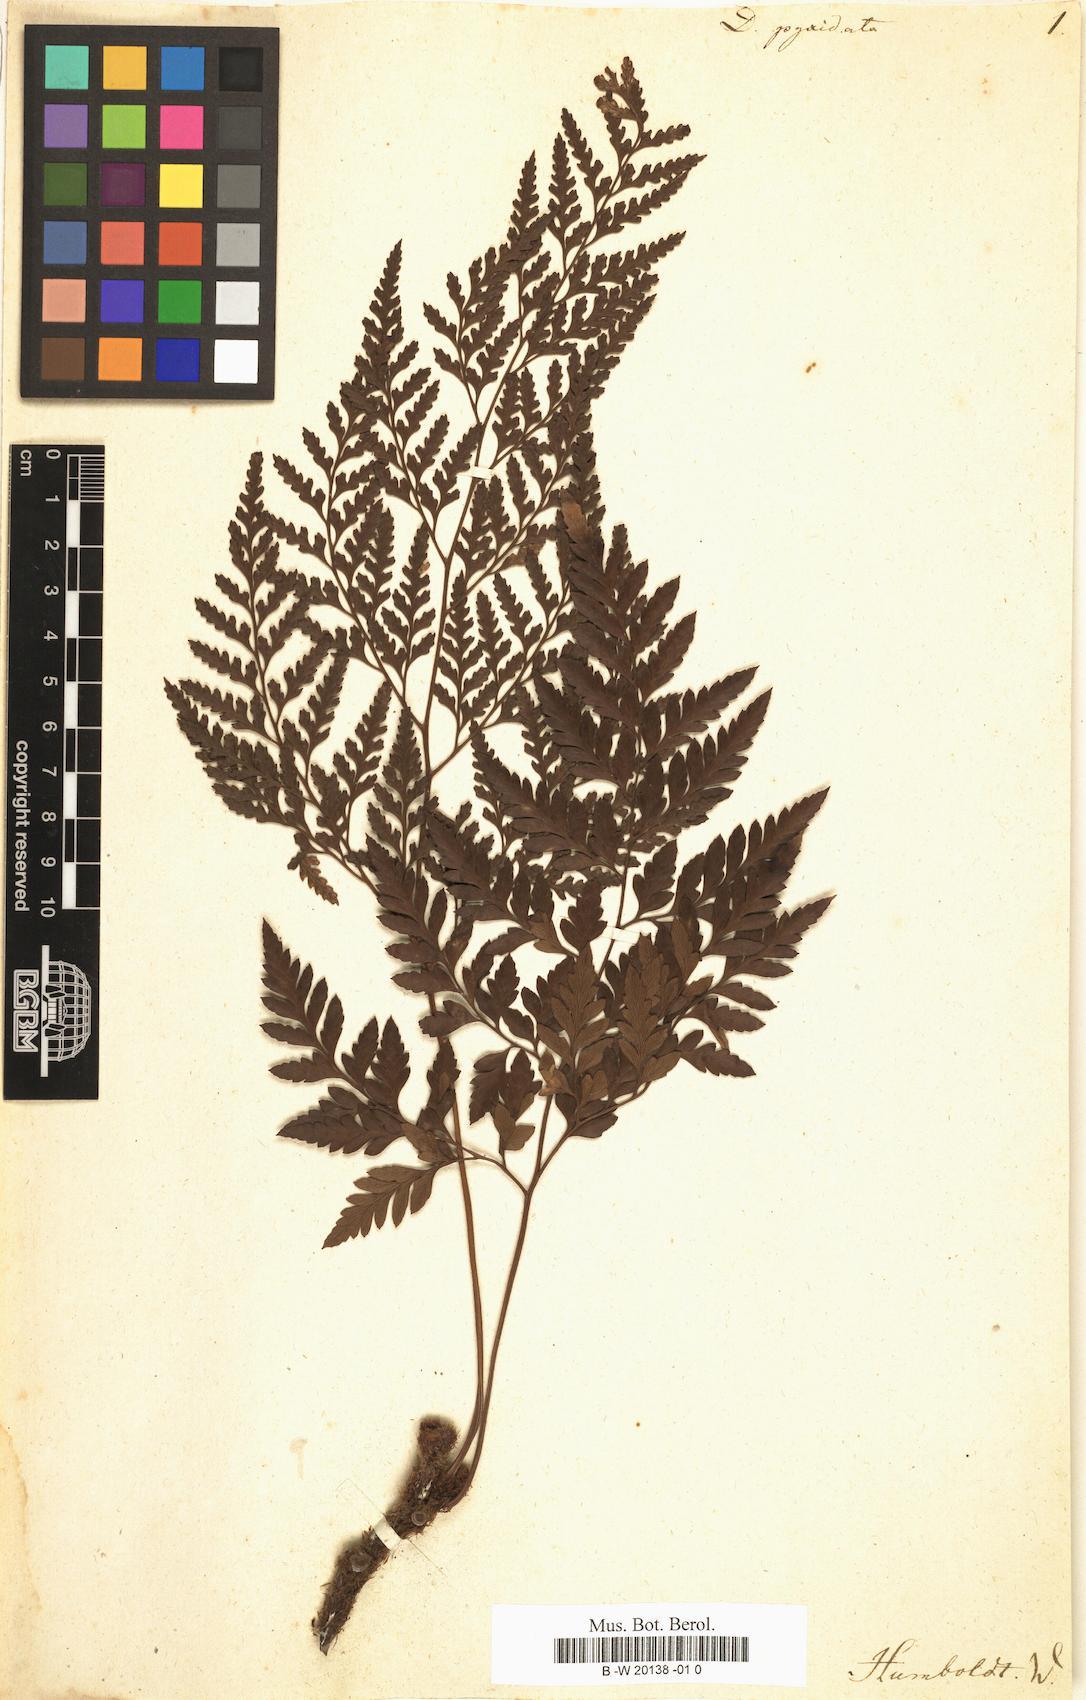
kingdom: Plantae
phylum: Tracheophyta
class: Polypodiopsida
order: Polypodiales
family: Davalliaceae
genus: Davallia
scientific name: Davallia pyxidata
